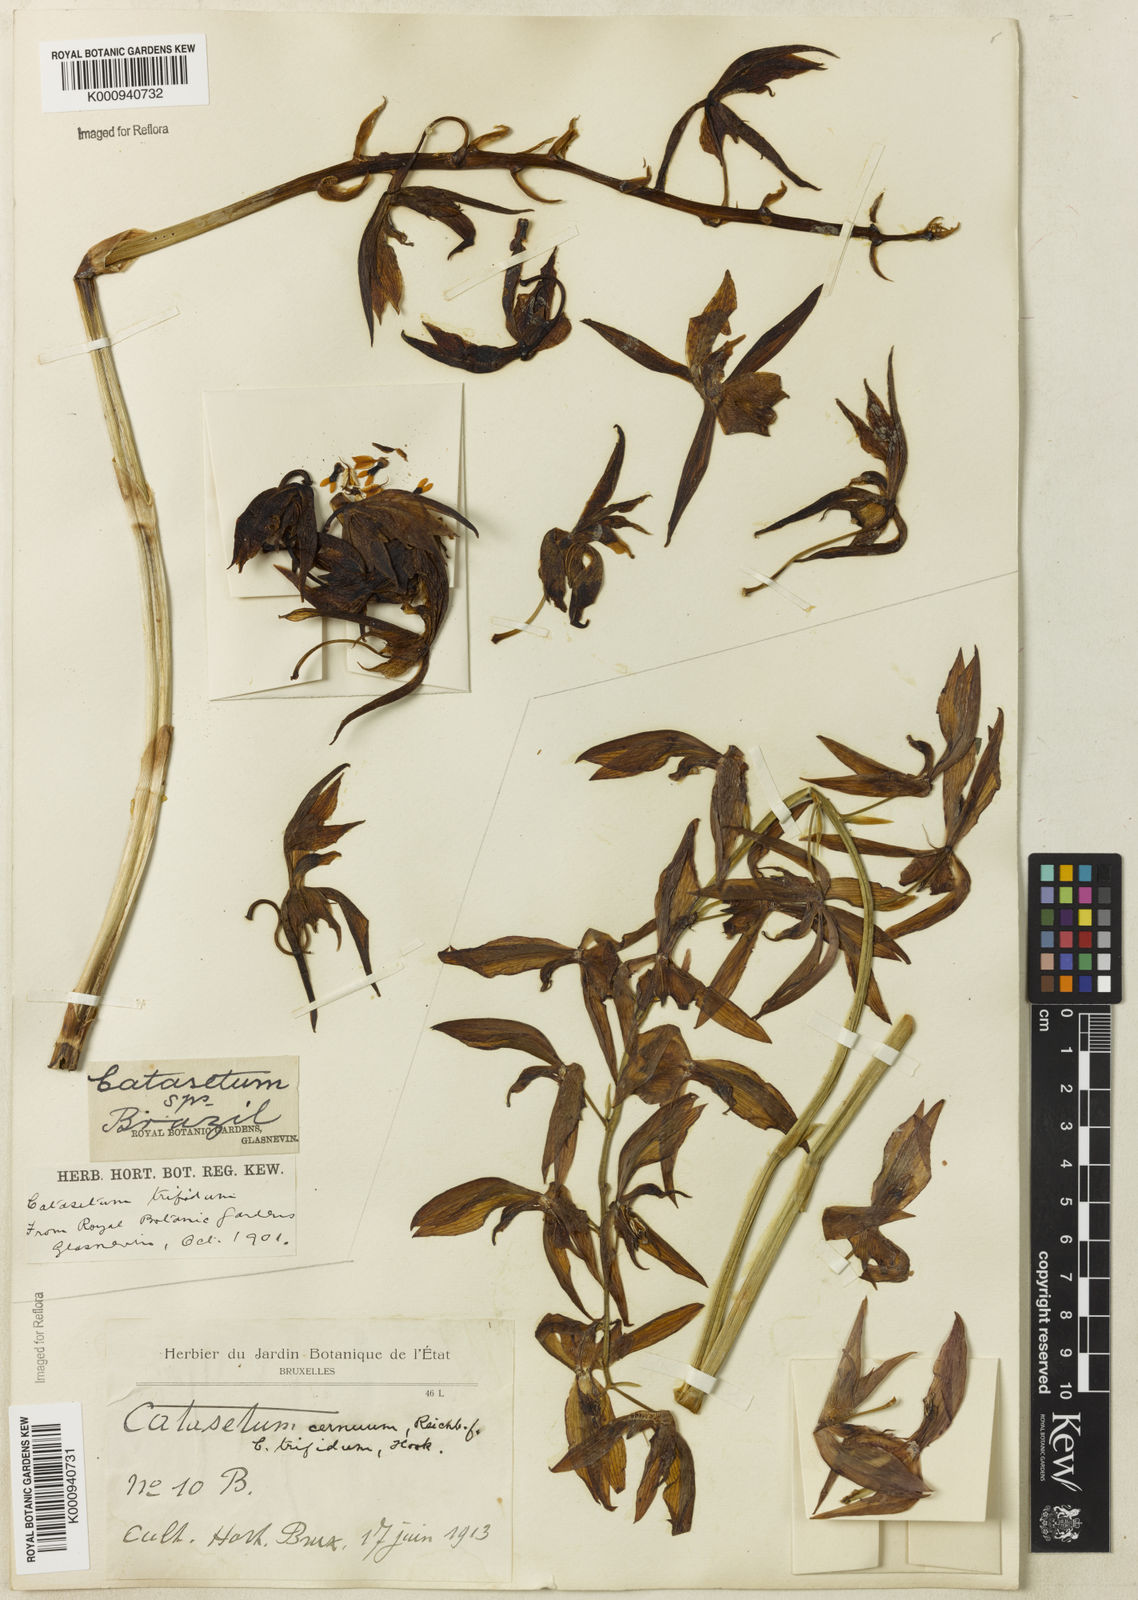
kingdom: Plantae
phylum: Tracheophyta
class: Liliopsida
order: Asparagales
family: Orchidaceae
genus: Catasetum
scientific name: Catasetum cernuum
